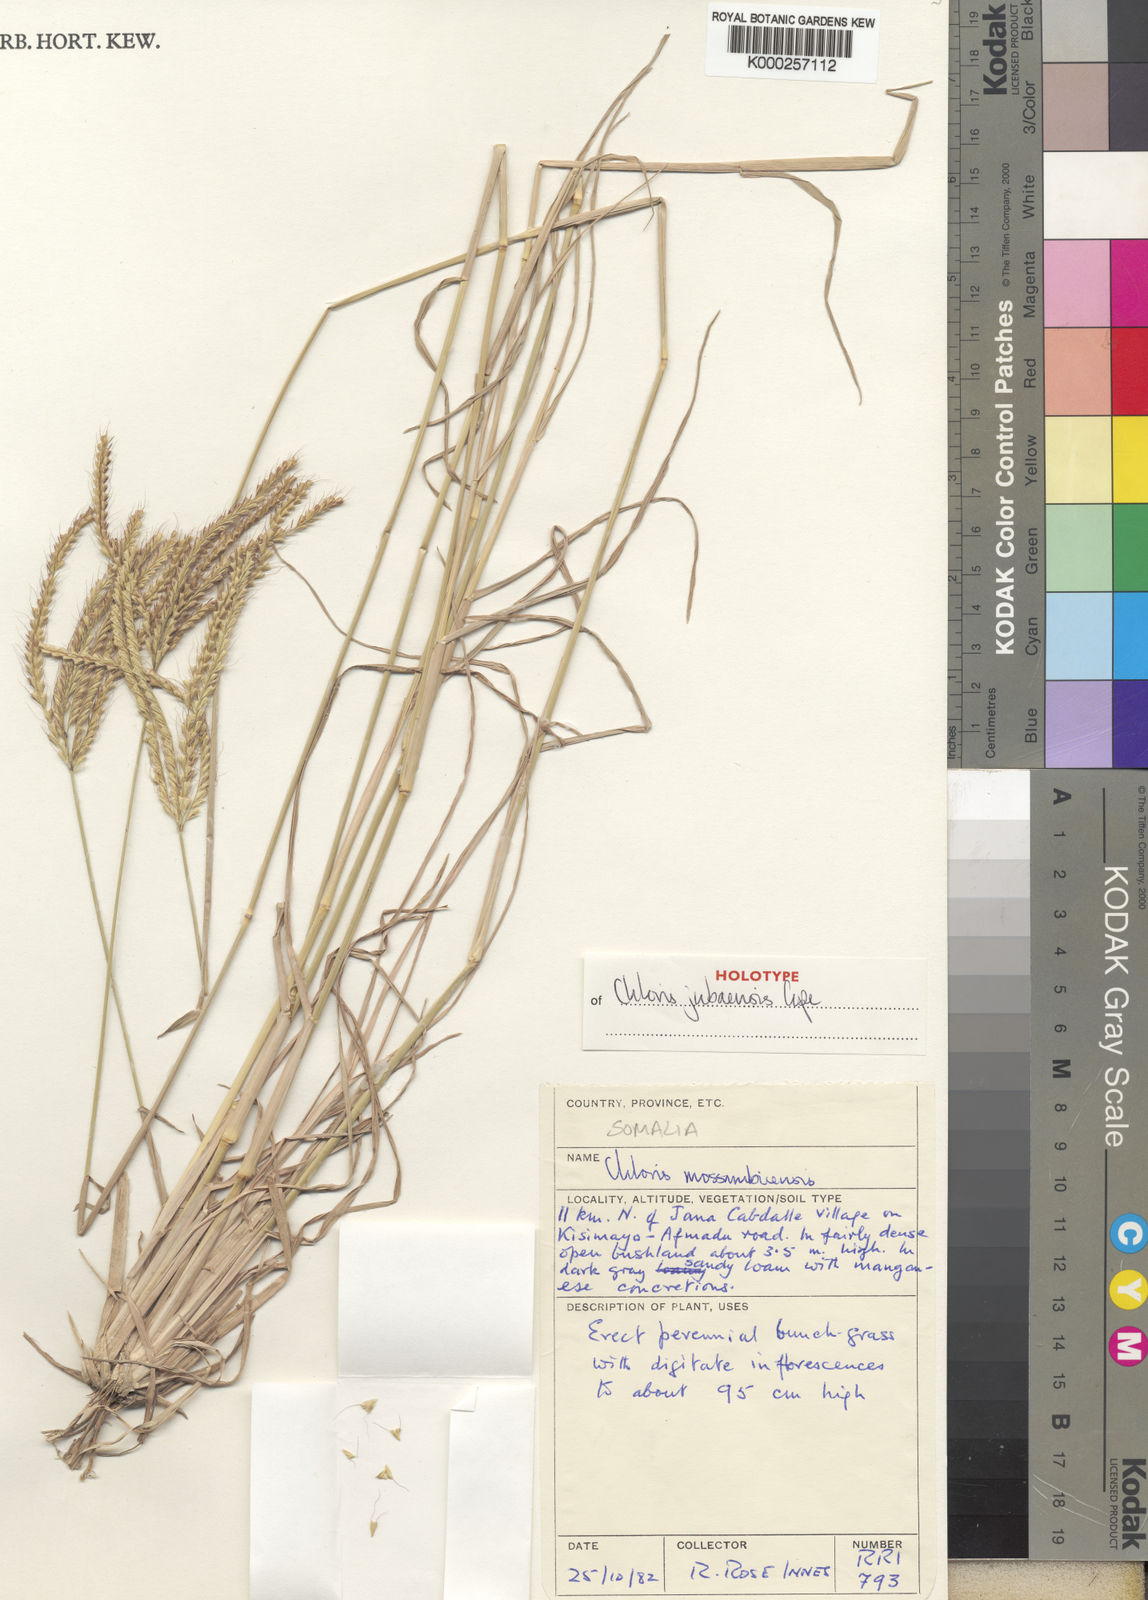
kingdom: Plantae
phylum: Tracheophyta
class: Liliopsida
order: Poales
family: Poaceae
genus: Chloris
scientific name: Chloris jubaensis
